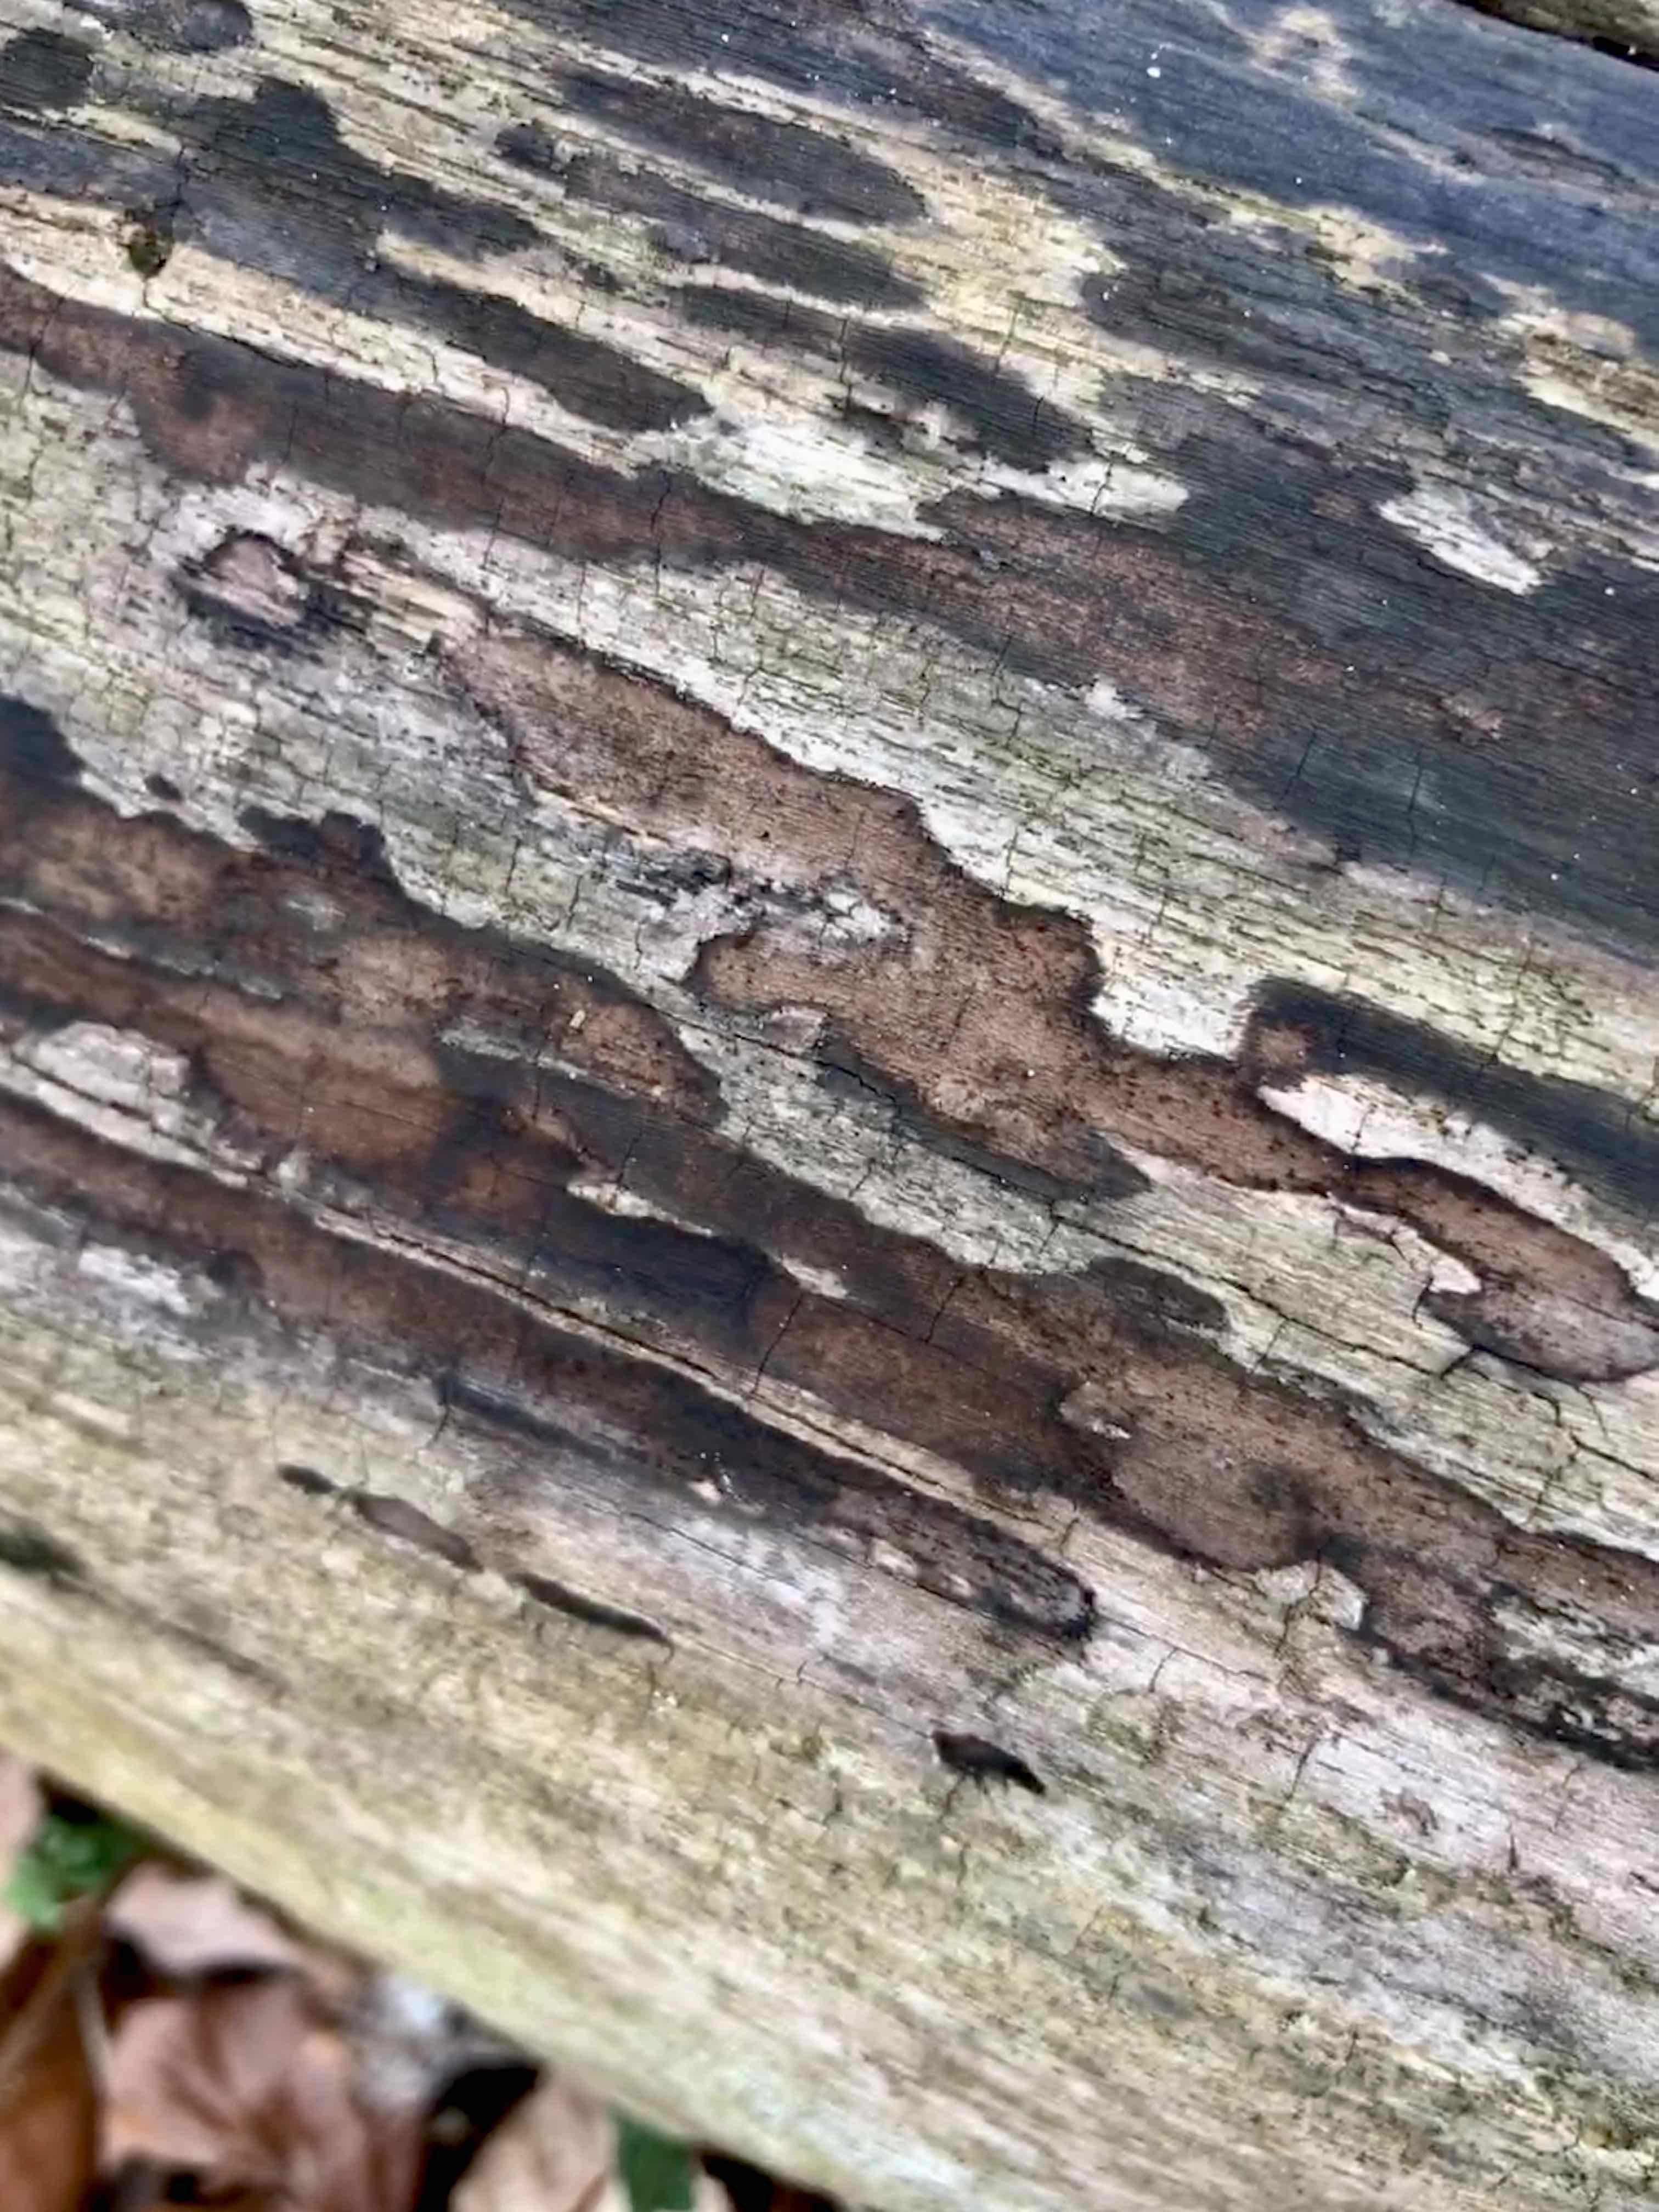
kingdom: Fungi
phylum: Ascomycota
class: Sordariomycetes
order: Xylariales
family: Hypoxylaceae
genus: Hypoxylon
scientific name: Hypoxylon petriniae
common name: nedsænket kulbær
